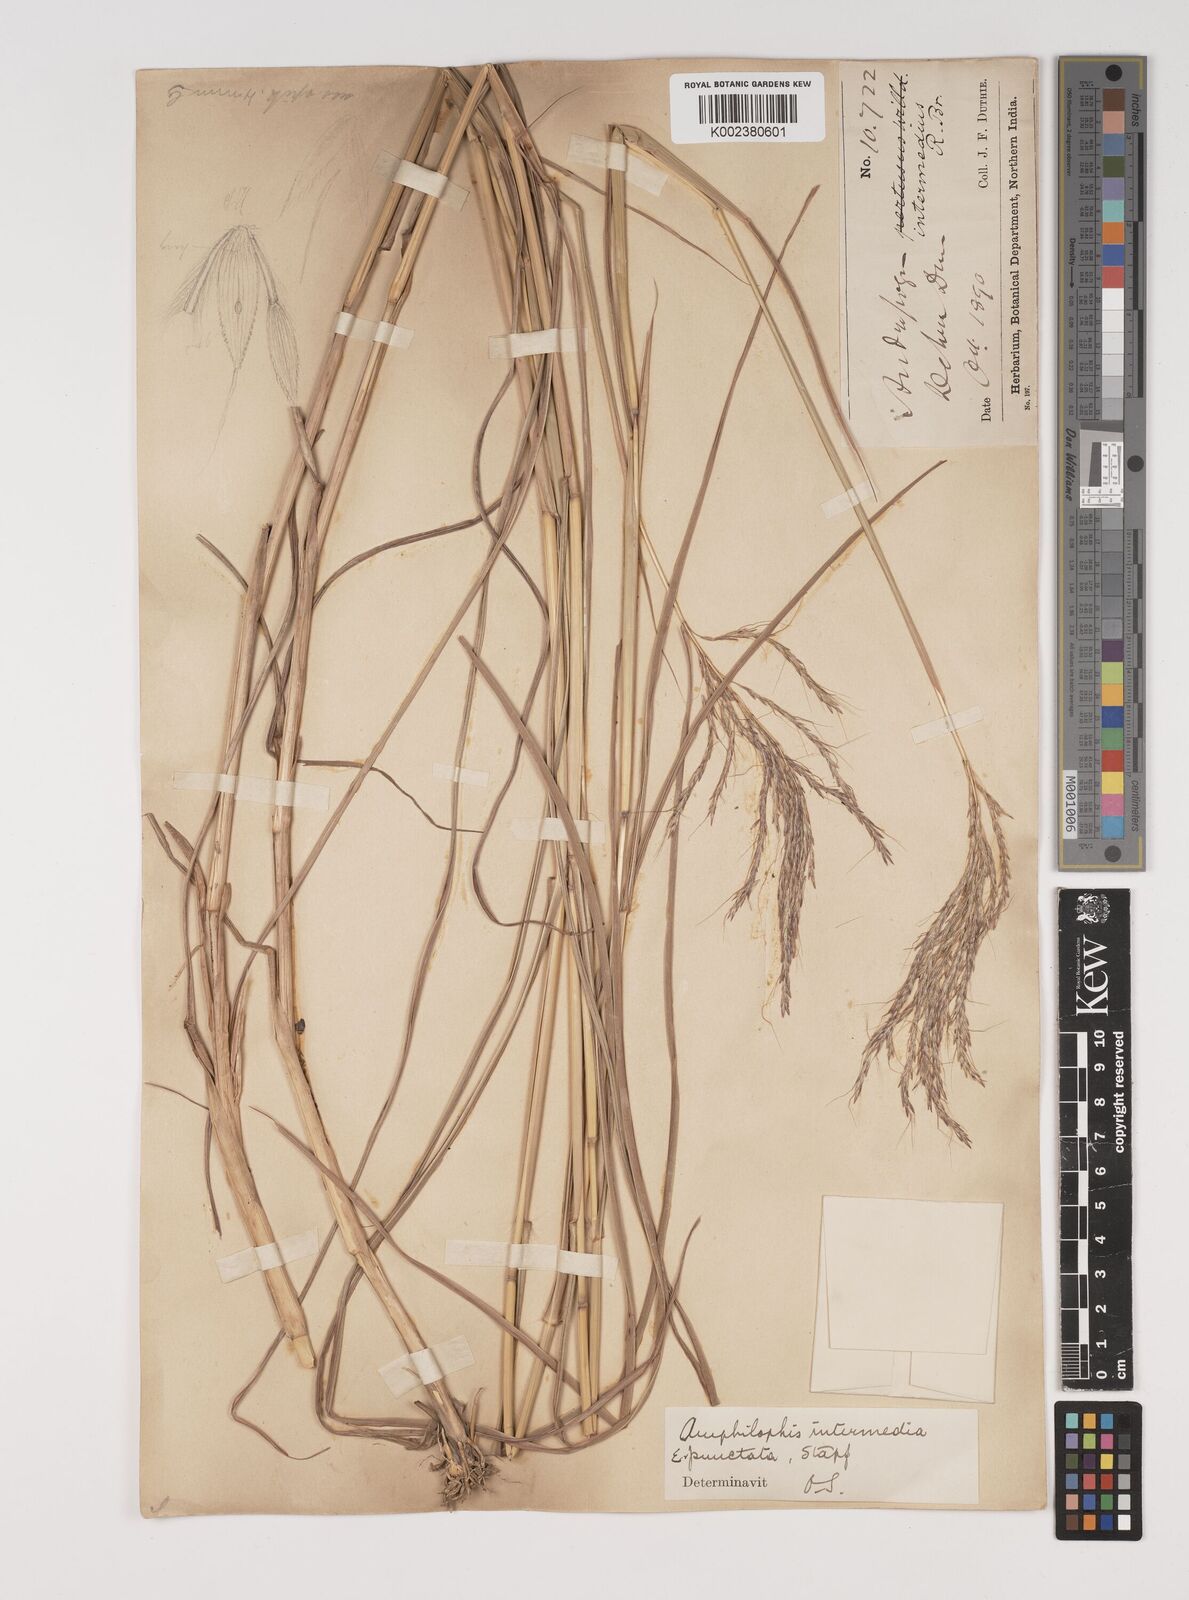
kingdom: Plantae
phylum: Tracheophyta
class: Liliopsida
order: Poales
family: Poaceae
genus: Bothriochloa
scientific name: Bothriochloa bladhii
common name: Caucasian bluestem
